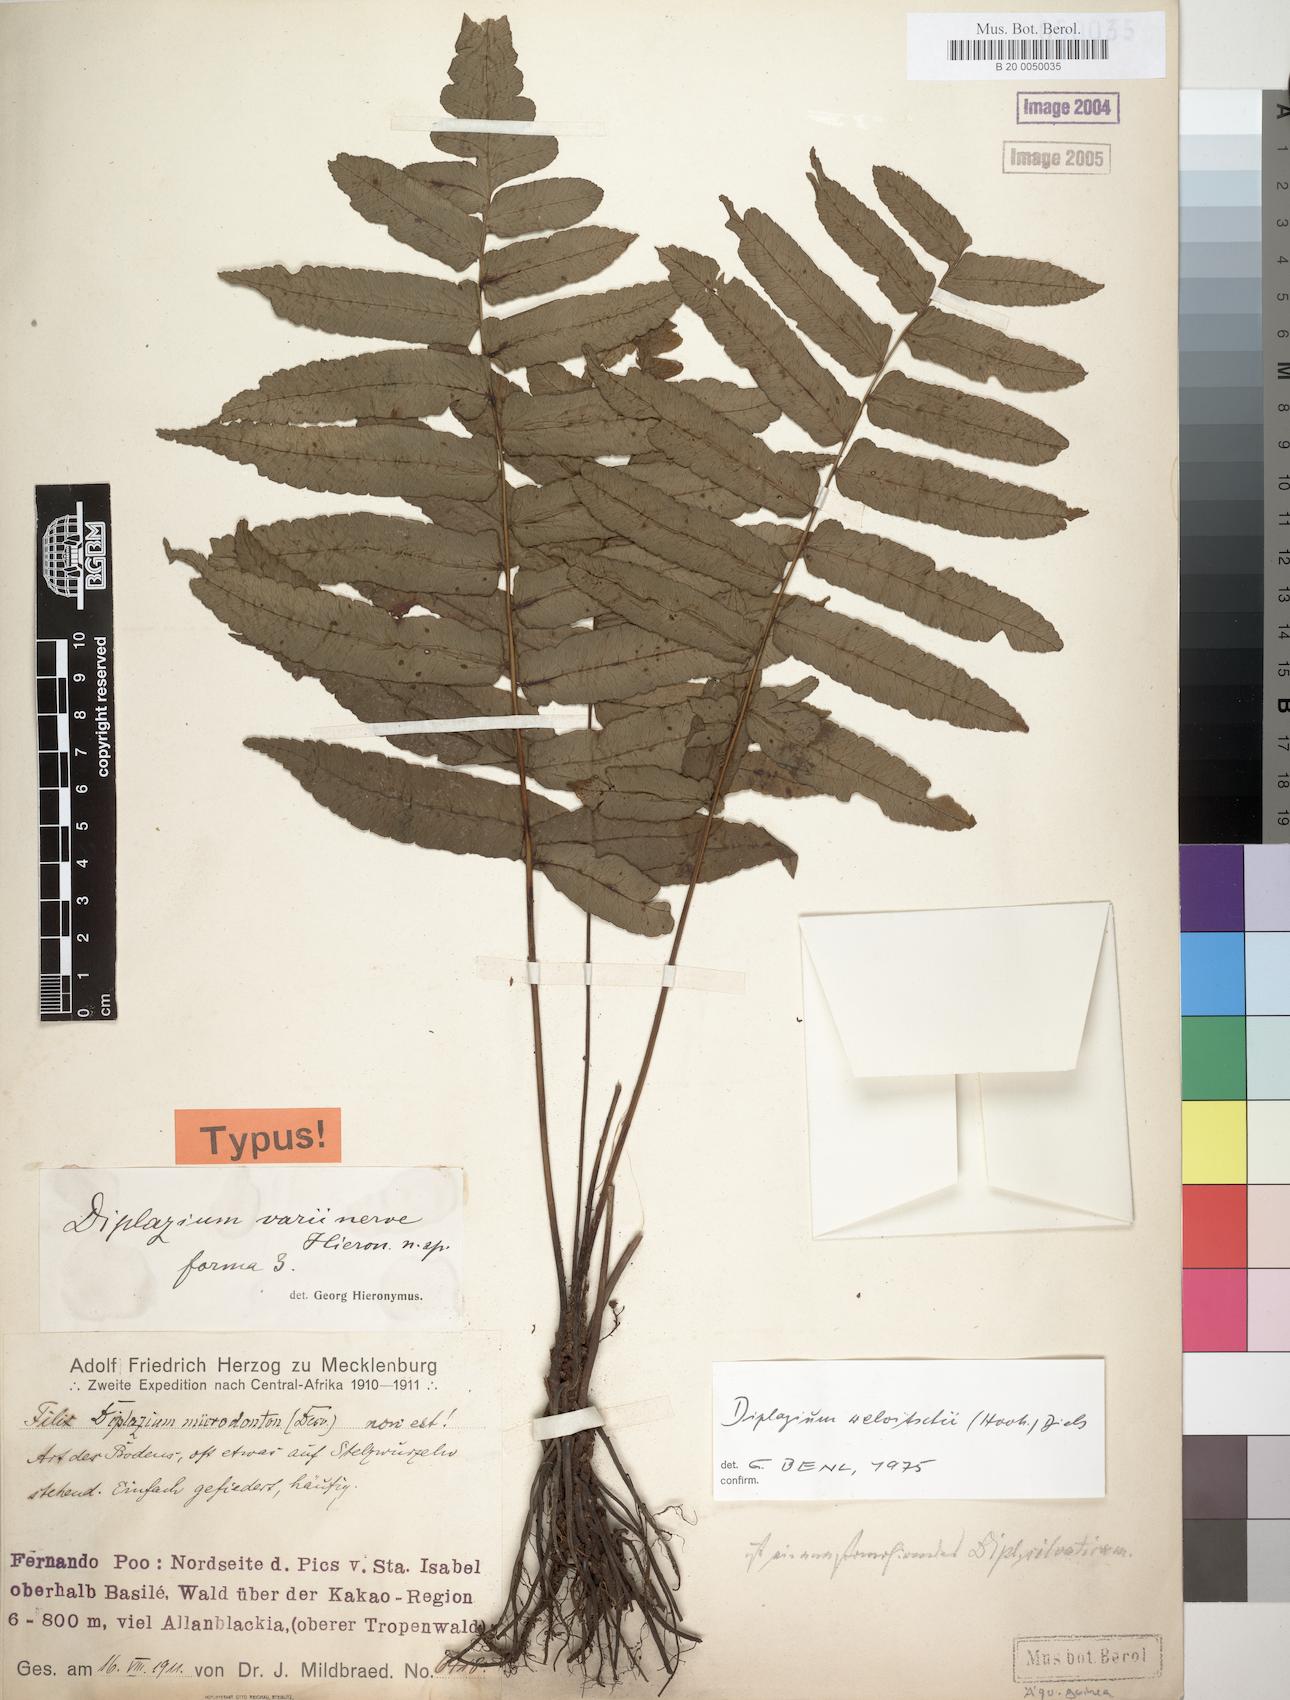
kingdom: Plantae
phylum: Tracheophyta
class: Polypodiopsida
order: Polypodiales
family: Athyriaceae
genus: Diplazium
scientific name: Diplazium welwitschii
